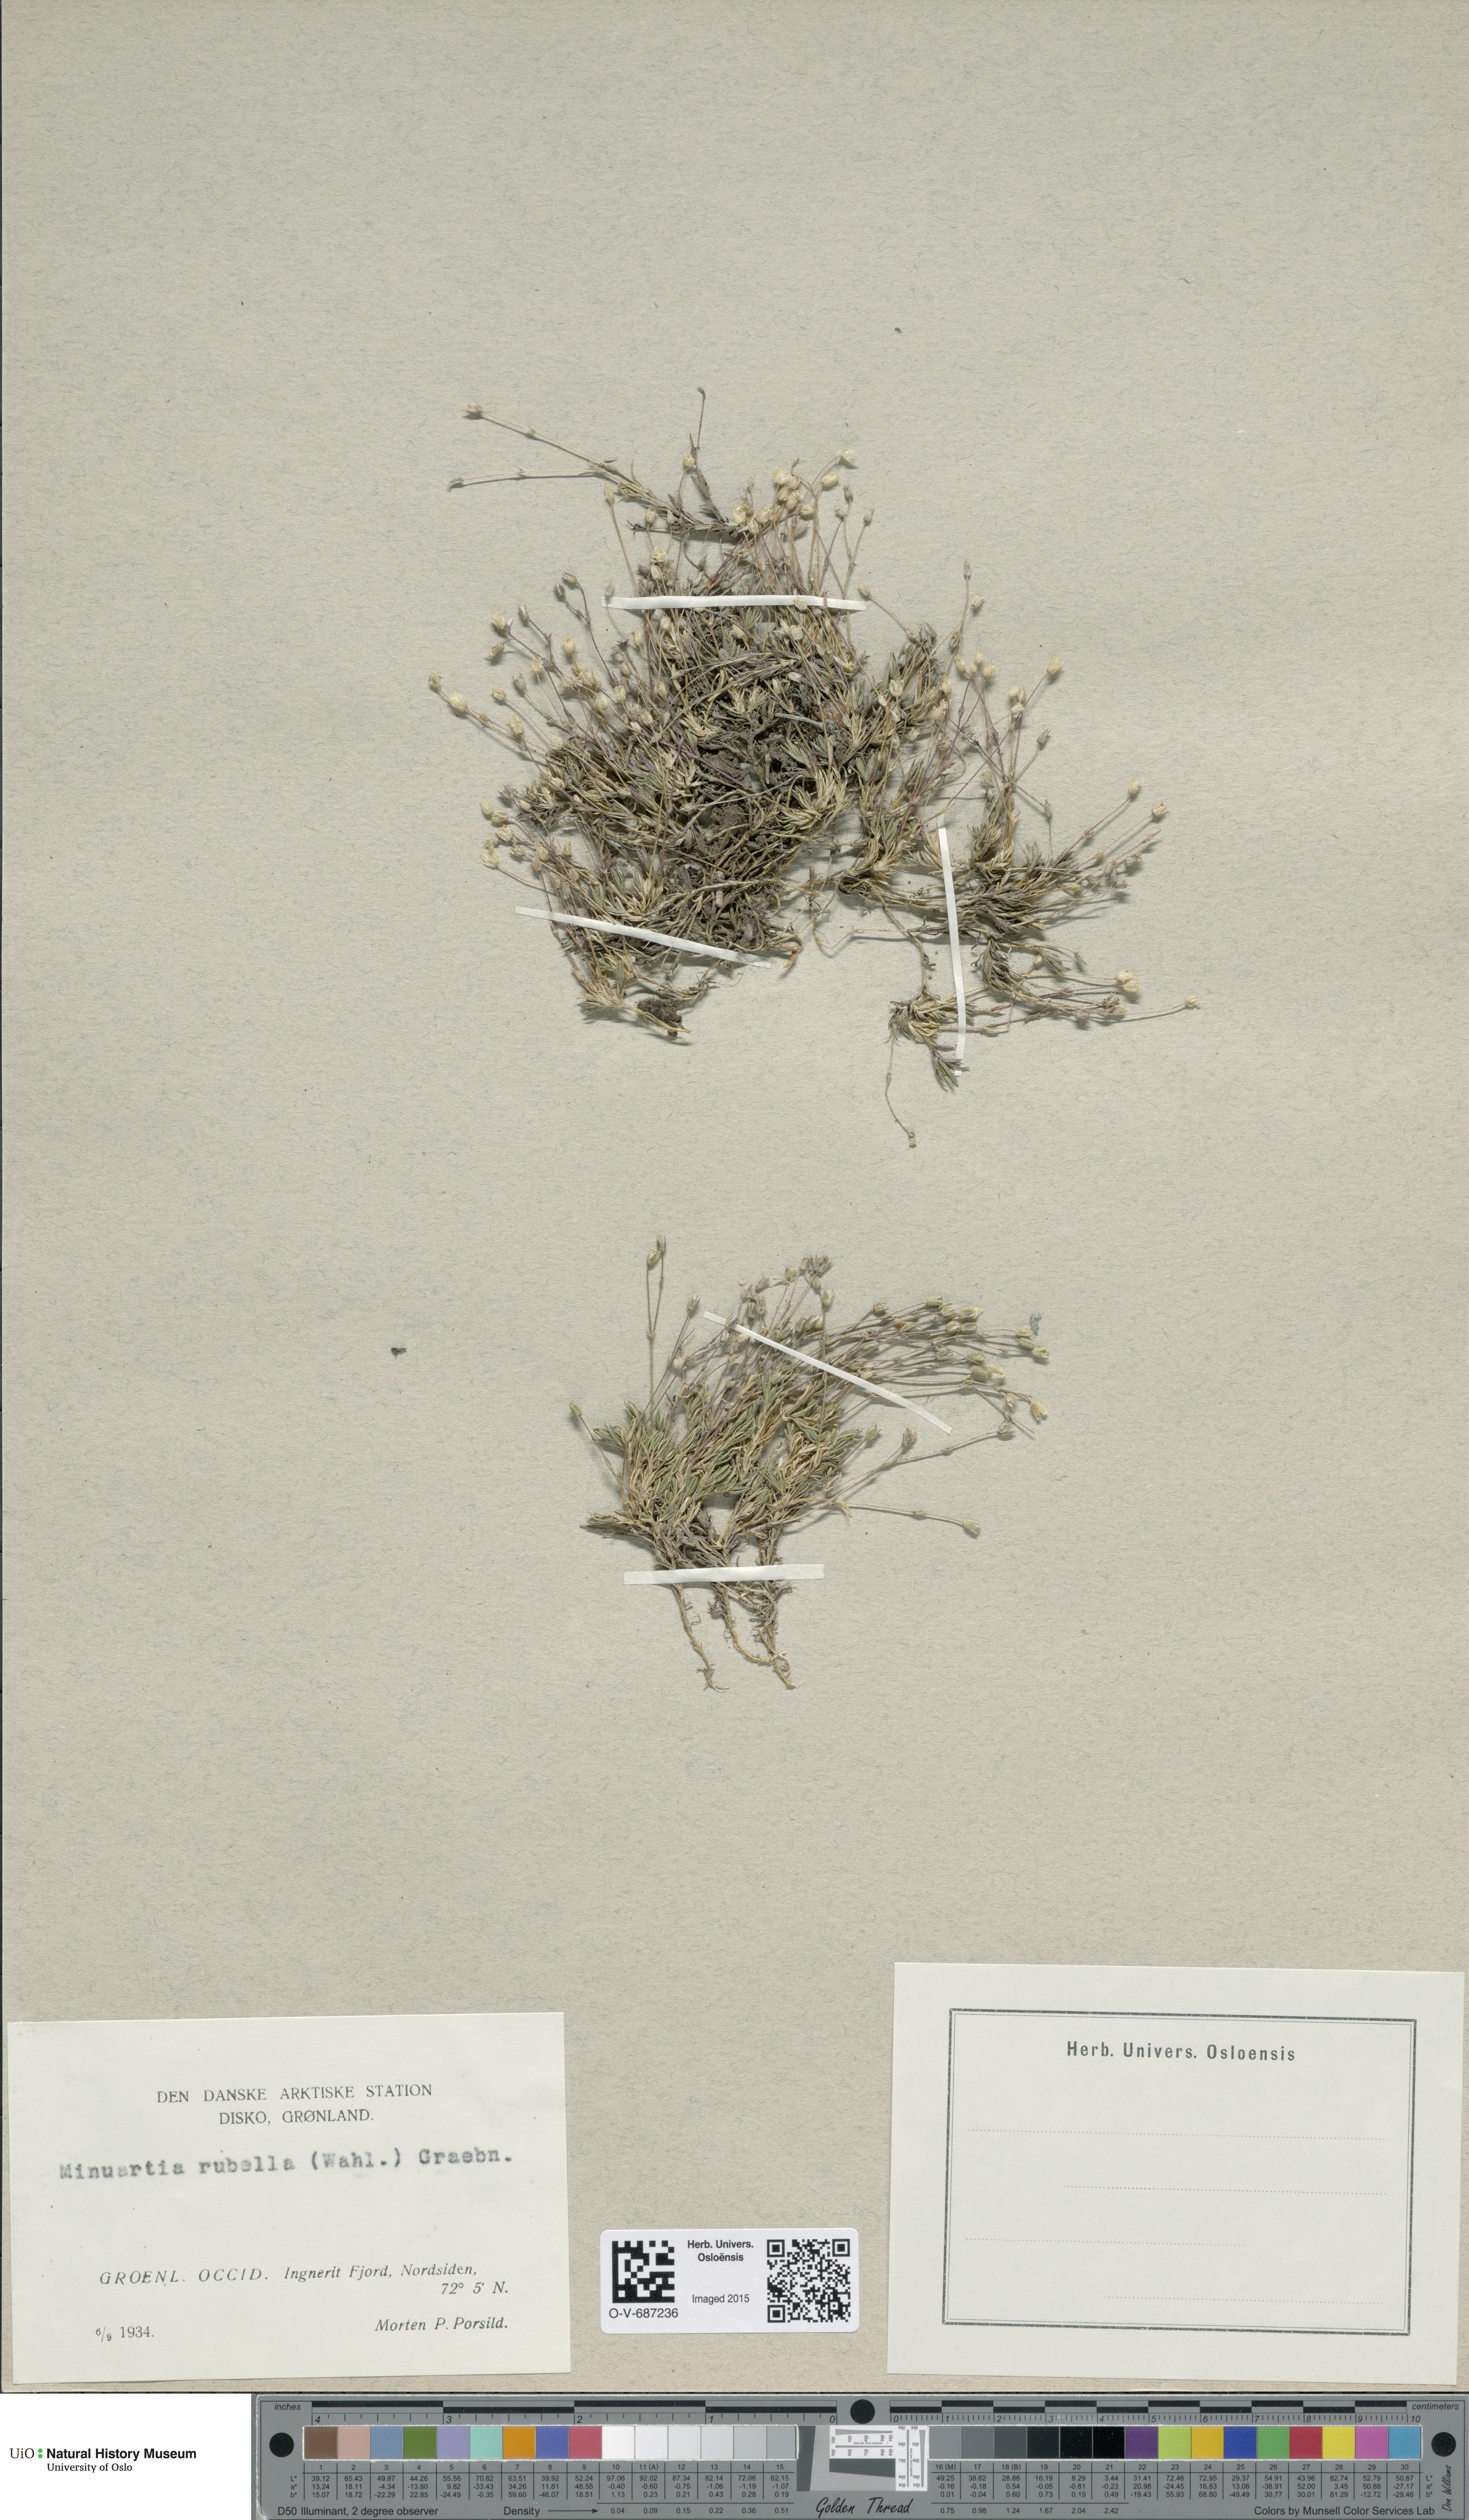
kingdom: Plantae
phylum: Tracheophyta
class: Magnoliopsida
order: Caryophyllales
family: Caryophyllaceae
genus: Sabulina
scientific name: Sabulina rubella
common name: Beautiful sandwort
